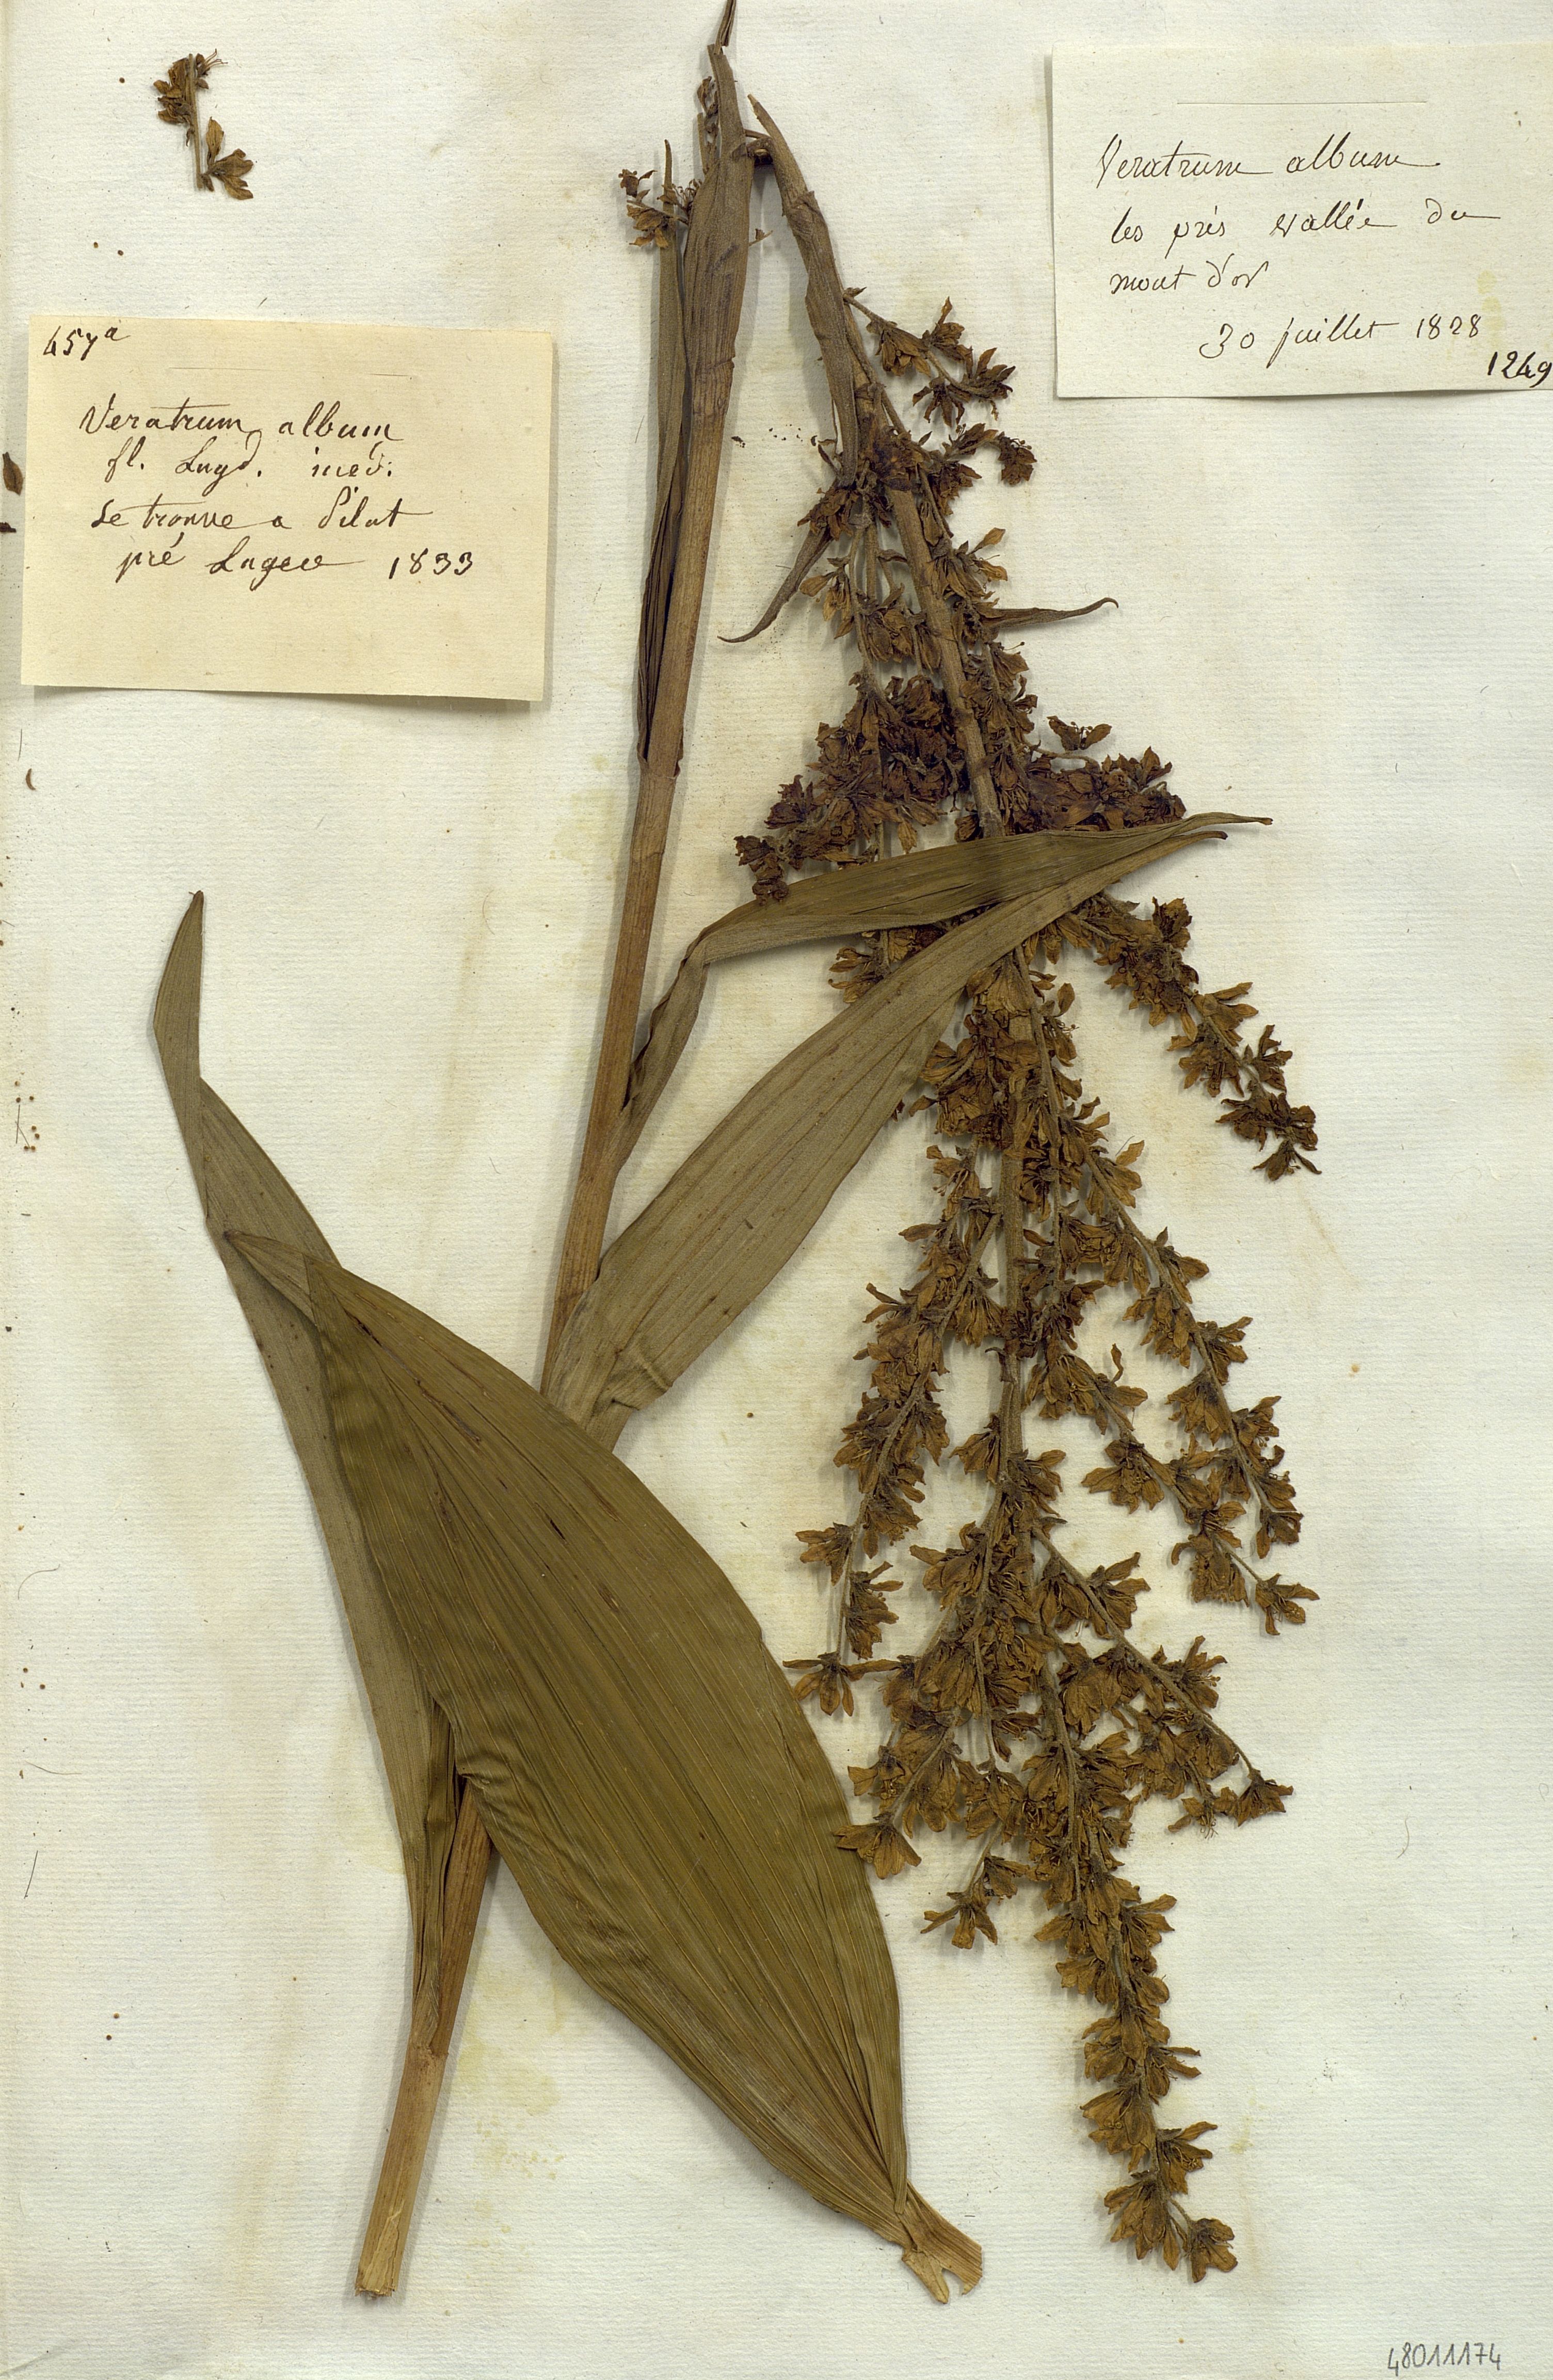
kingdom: Plantae
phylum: Tracheophyta
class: Liliopsida
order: Liliales
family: Melanthiaceae
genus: Veratrum
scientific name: Veratrum album
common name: White veratrum
